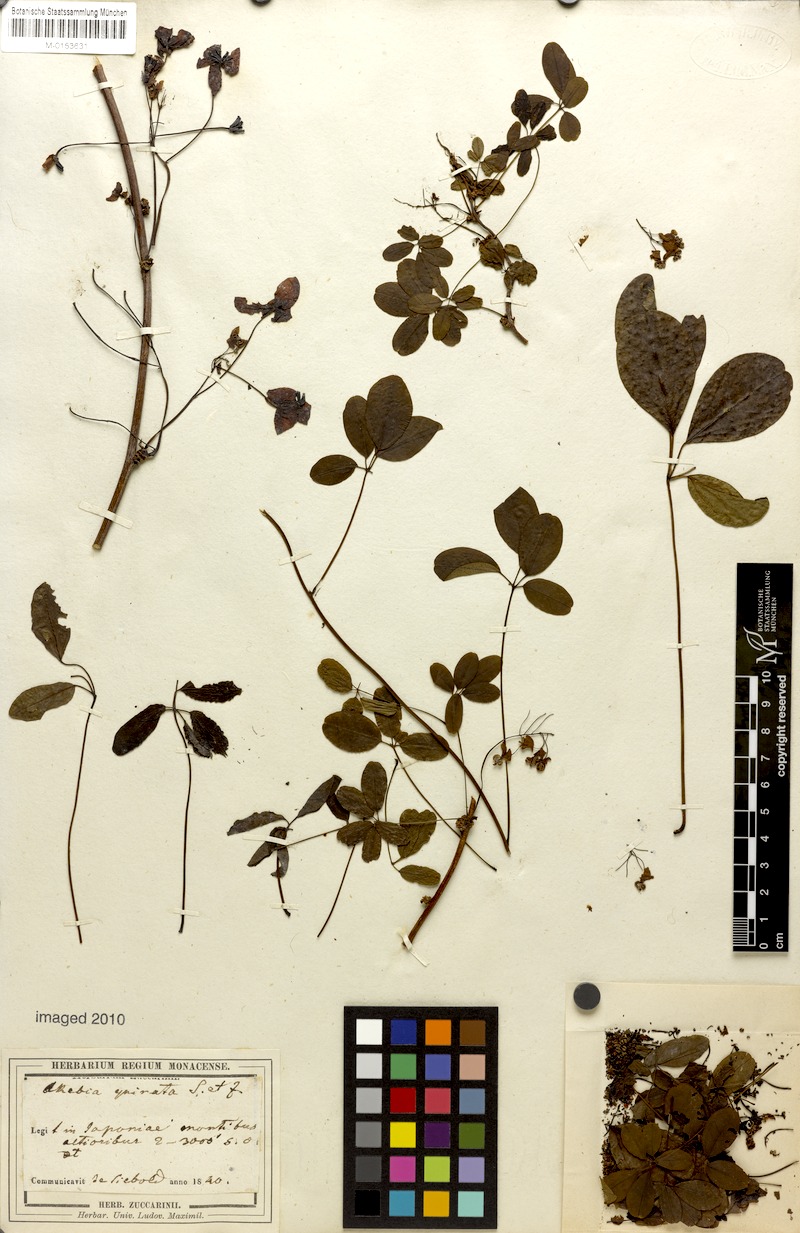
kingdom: Plantae
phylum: Tracheophyta
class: Magnoliopsida
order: Ranunculales
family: Lardizabalaceae
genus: Akebia
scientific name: Akebia quinata
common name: Five-leaf akebia
